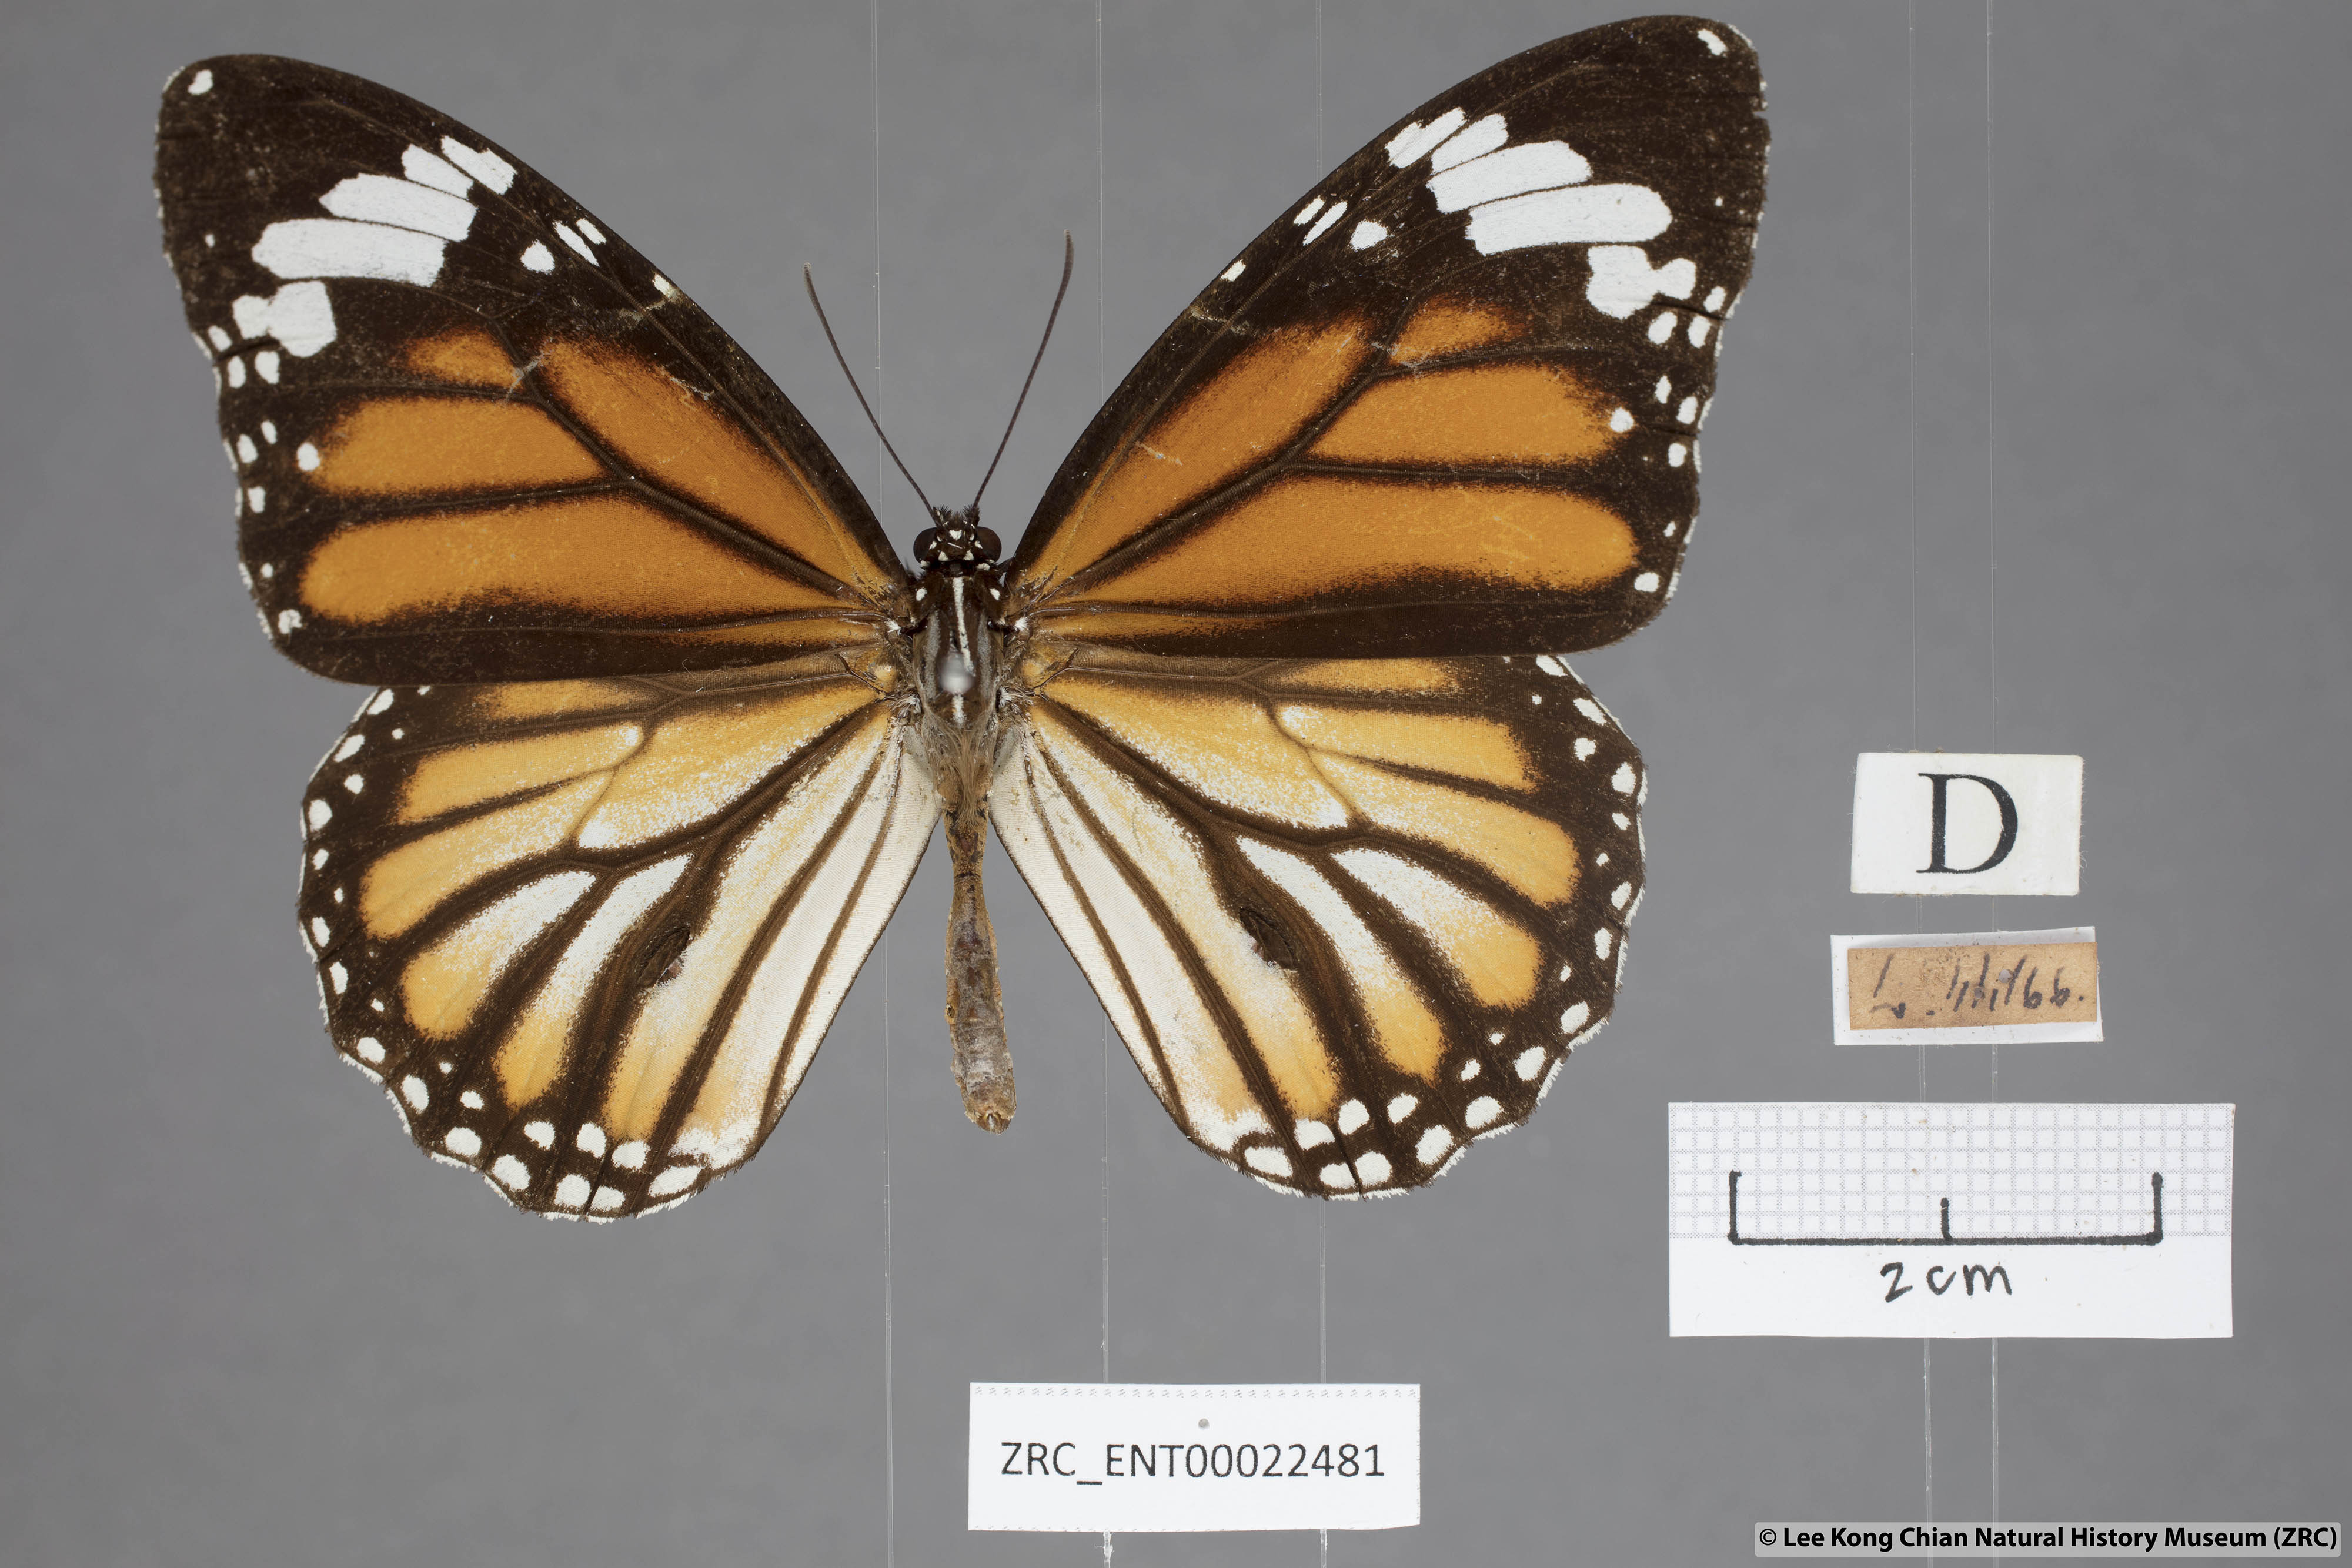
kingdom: Animalia
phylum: Arthropoda
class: Insecta
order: Lepidoptera
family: Nymphalidae
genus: Danaus
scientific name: Danaus genutia
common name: Common tiger butterfly
